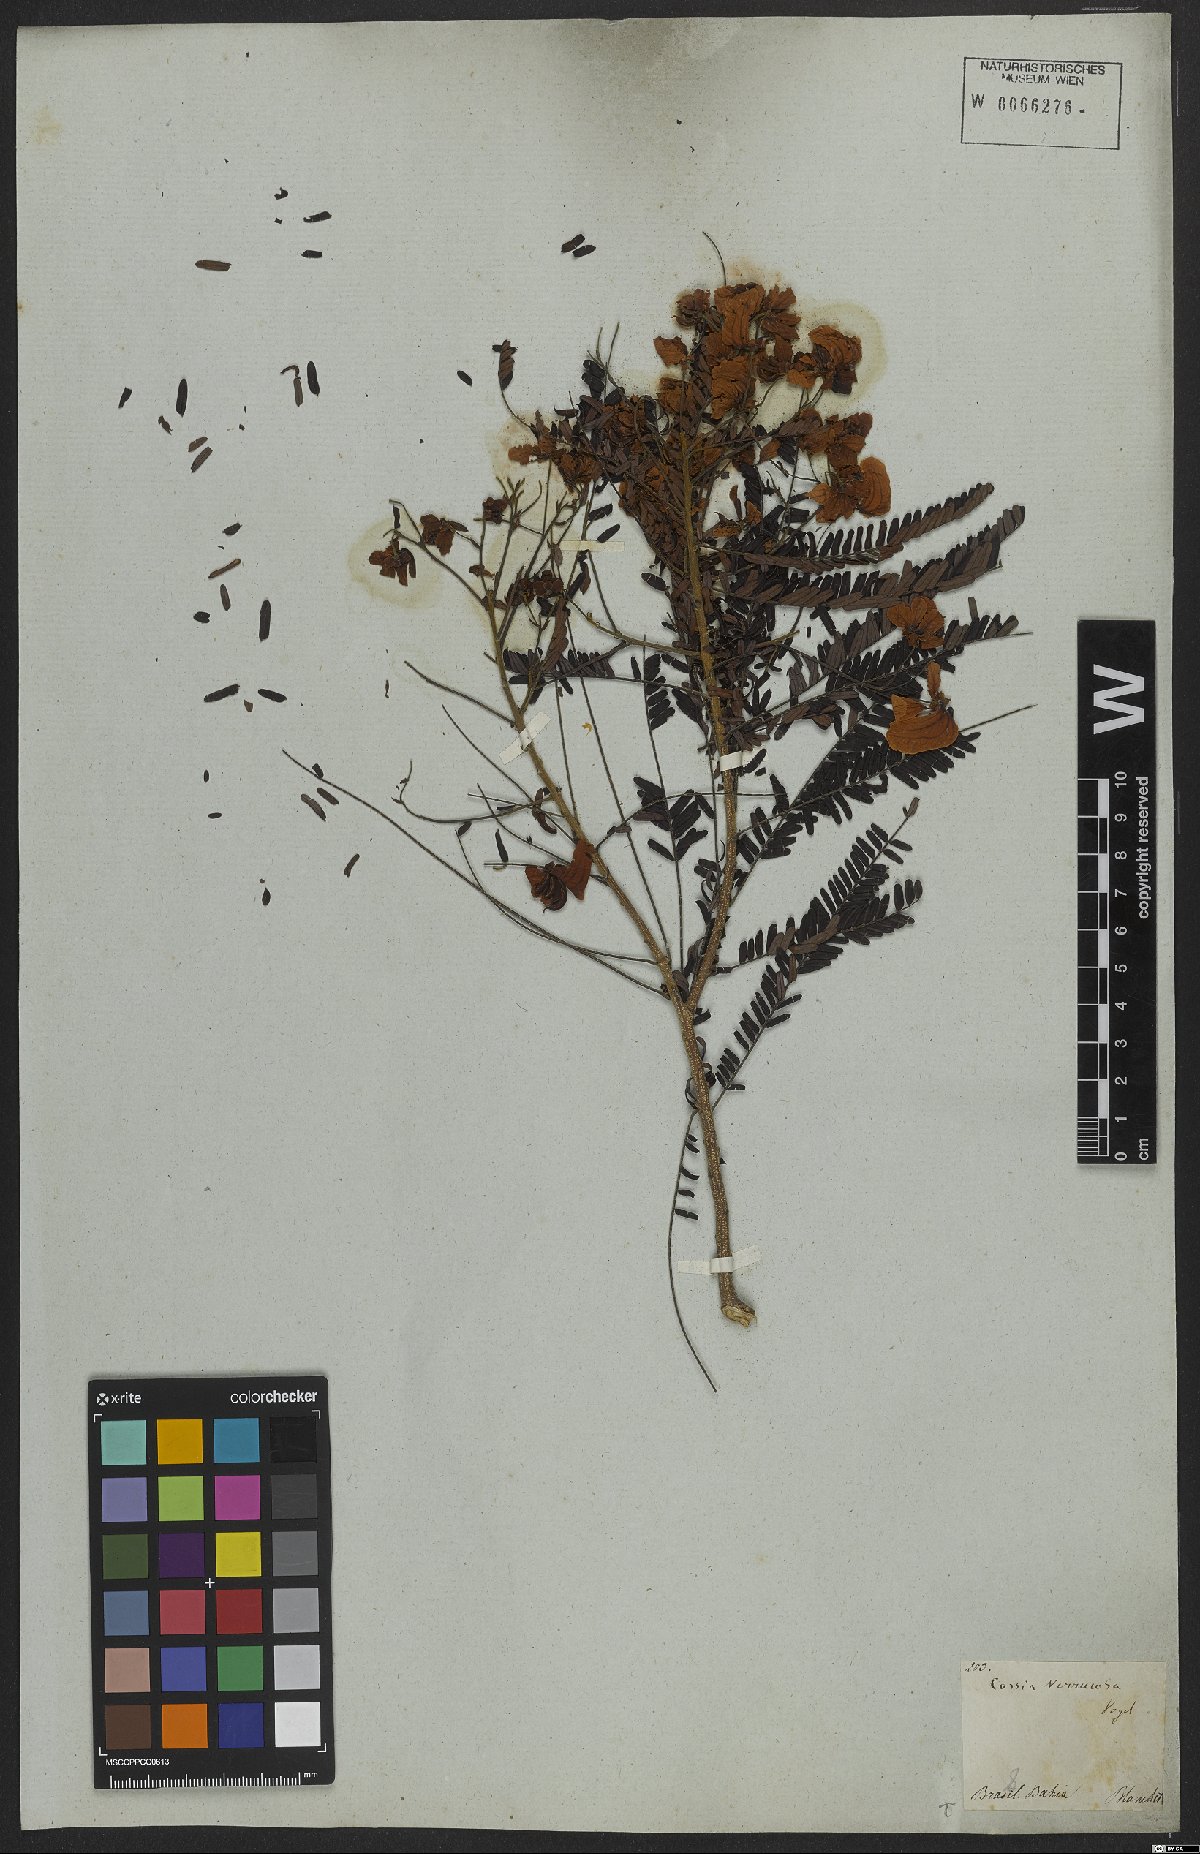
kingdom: Plantae
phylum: Tracheophyta
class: Magnoliopsida
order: Fabales
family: Fabaceae
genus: Senna
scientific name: Senna multijuga
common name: False sicklepod
